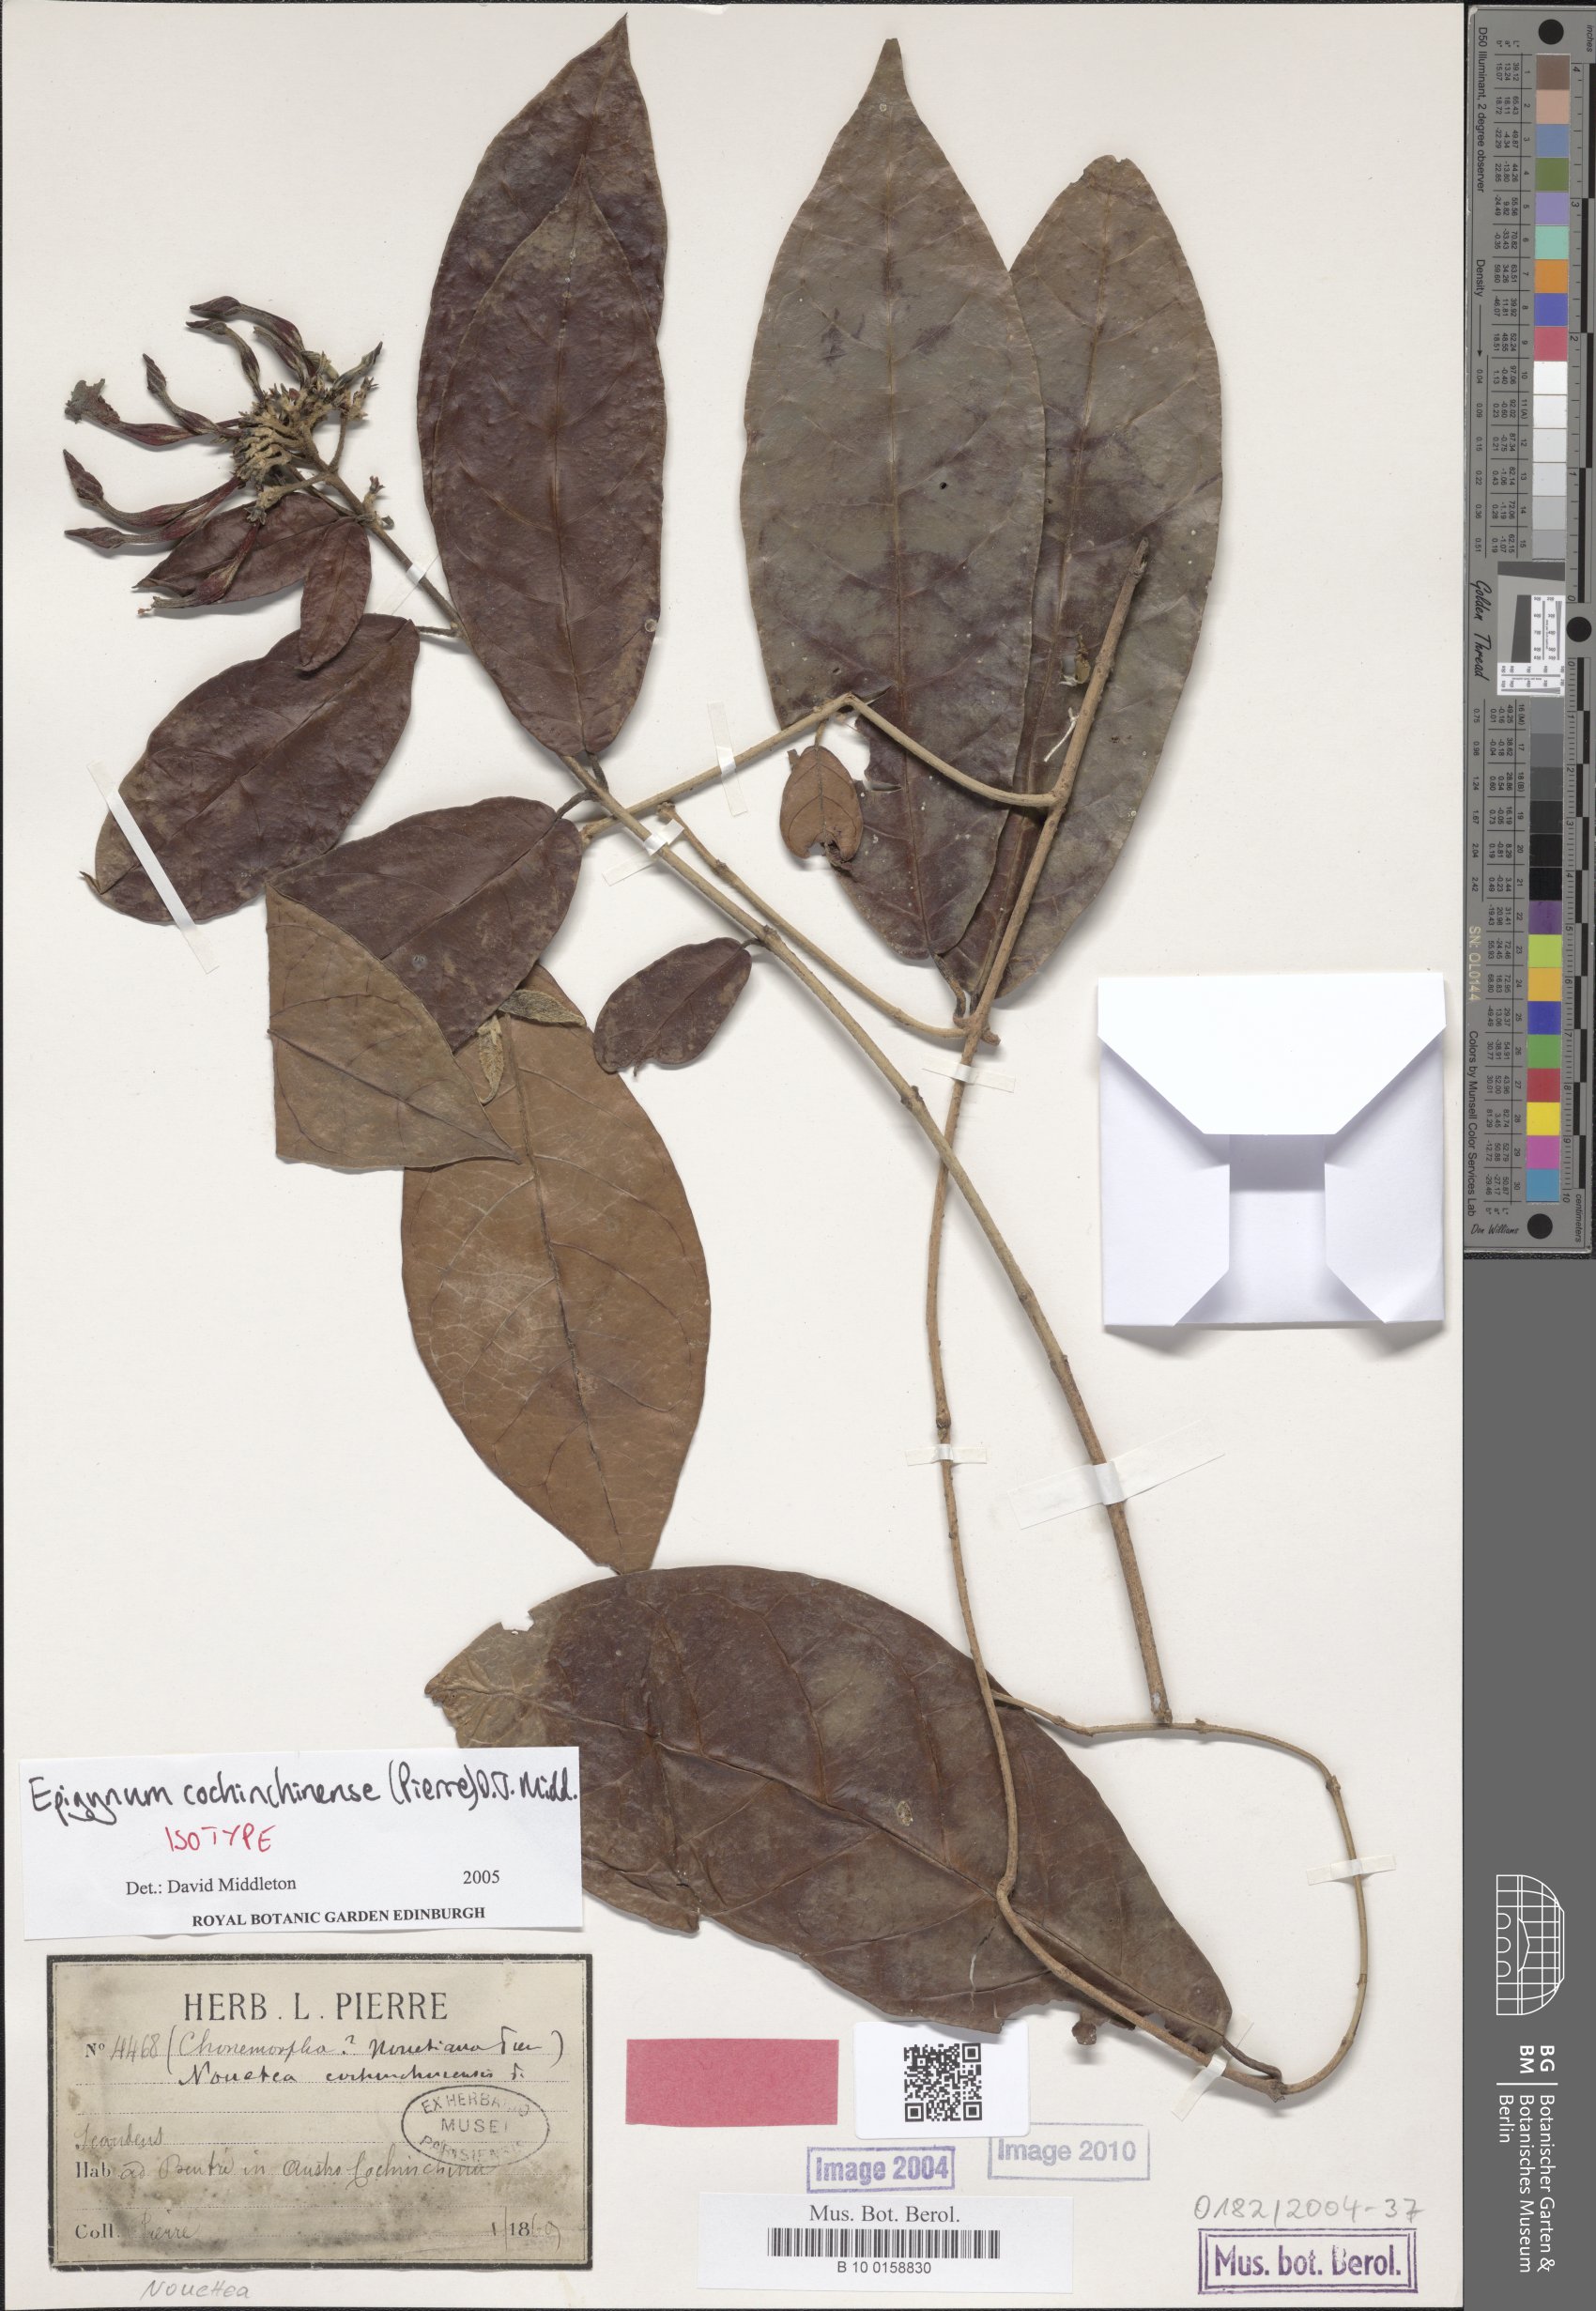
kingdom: Plantae
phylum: Tracheophyta
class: Magnoliopsida
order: Gentianales
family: Apocynaceae
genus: Epigynum
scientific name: Epigynum cochinchinensis
